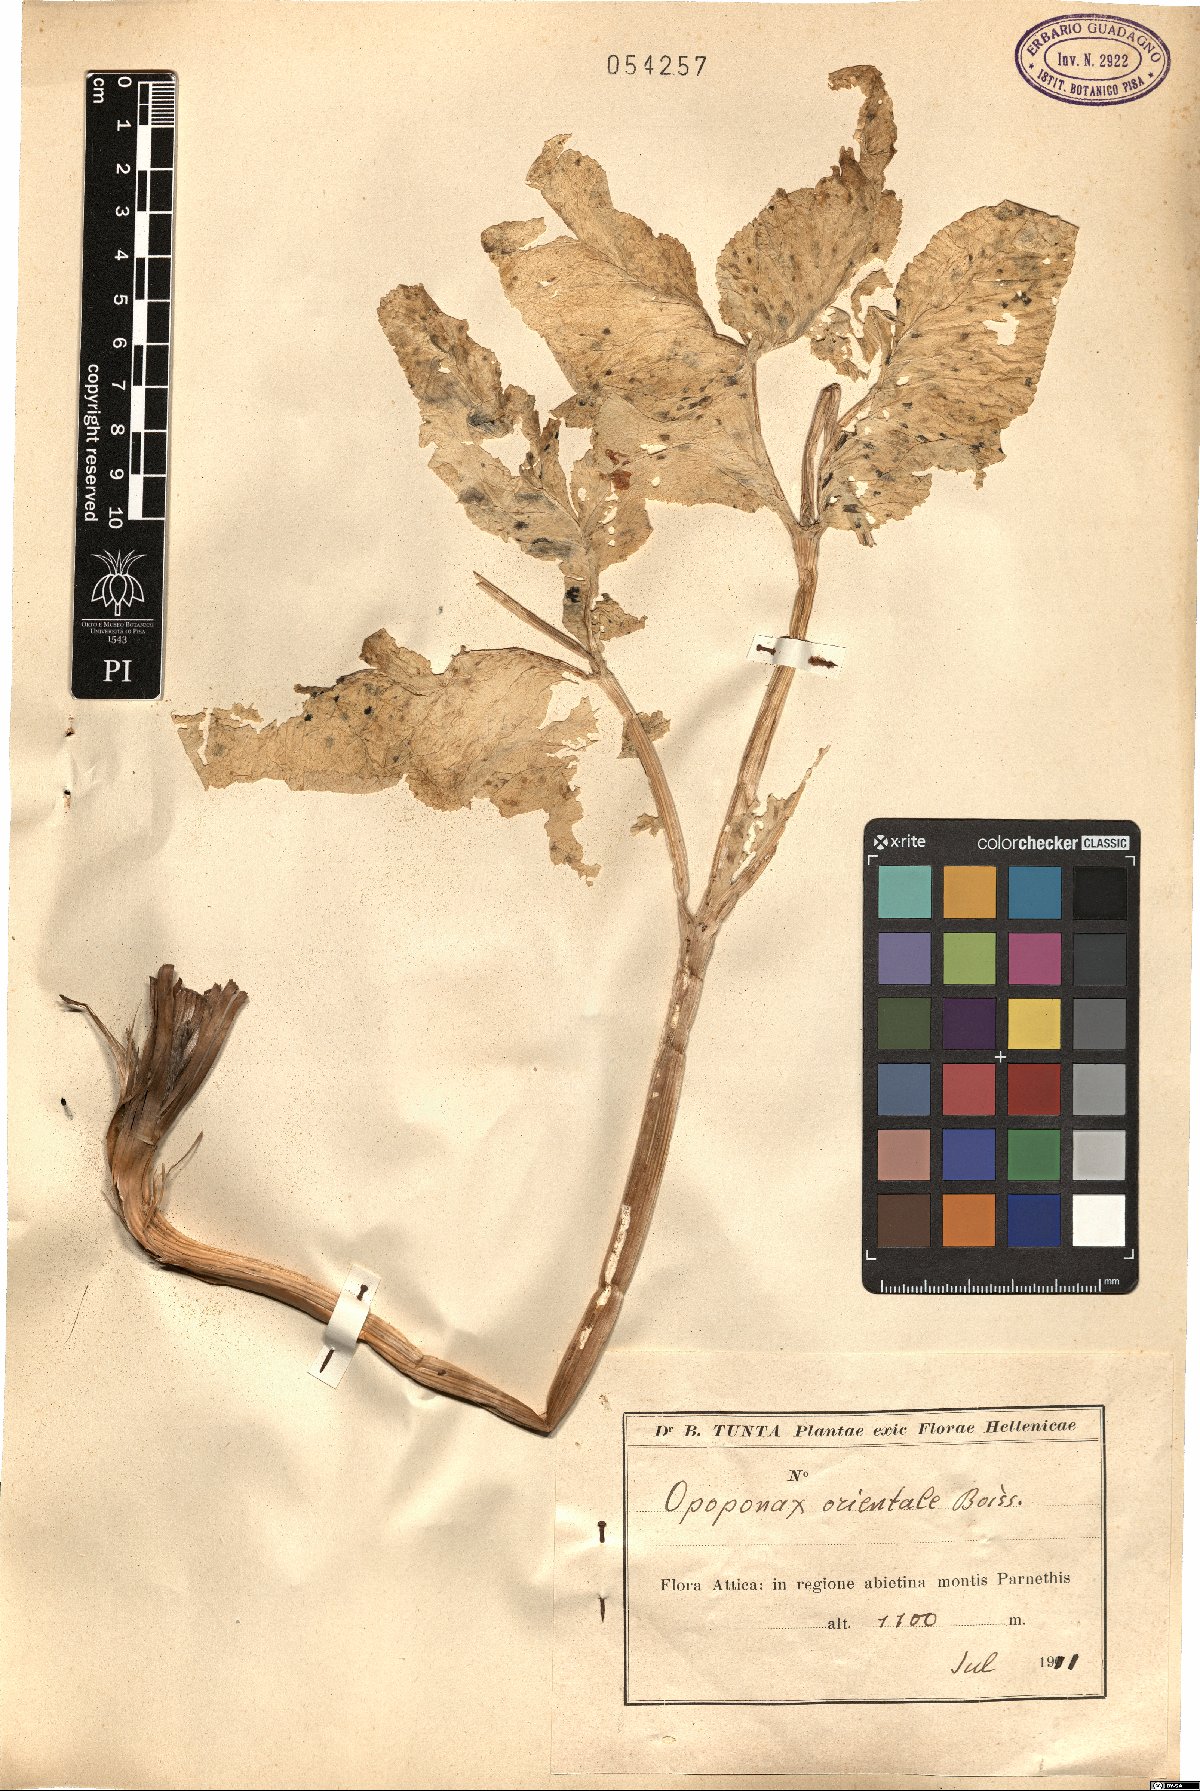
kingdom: Plantae
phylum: Tracheophyta
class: Magnoliopsida
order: Apiales
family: Apiaceae
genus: Opopanax
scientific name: Opopanax hispidus
